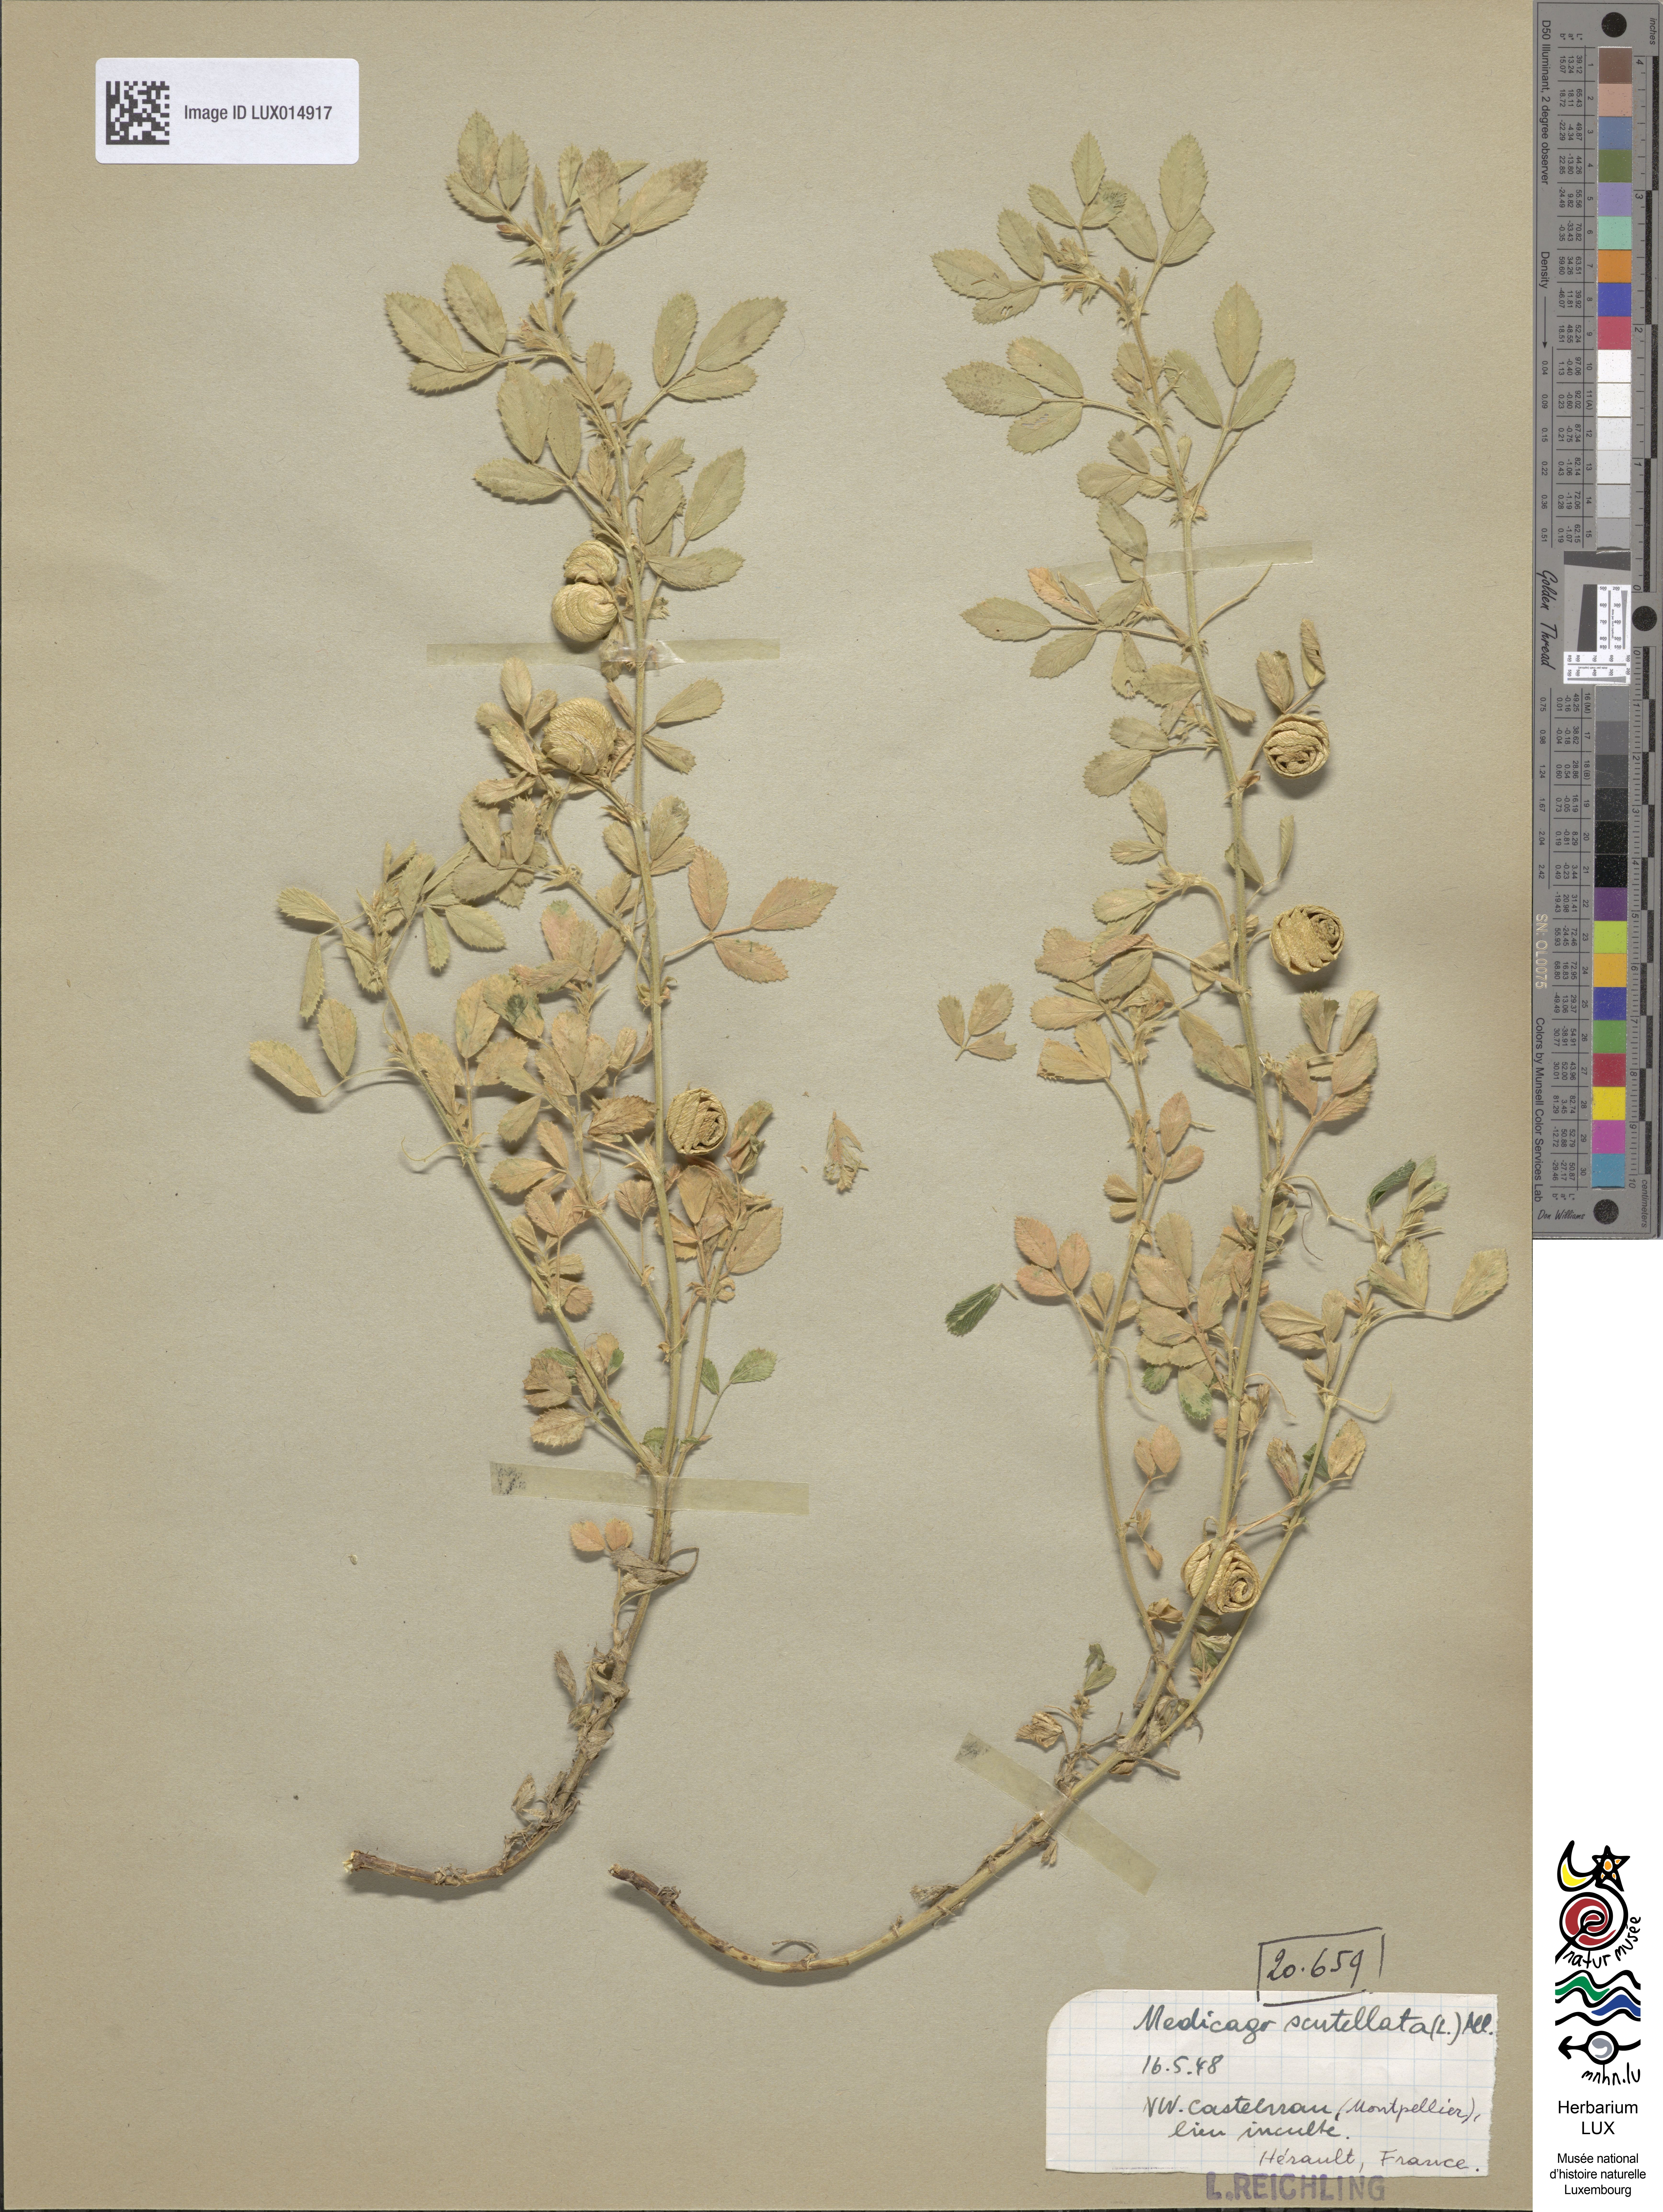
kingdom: Plantae
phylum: Tracheophyta
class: Magnoliopsida
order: Fabales
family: Fabaceae
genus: Medicago
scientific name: Medicago scutellata
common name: Snail medick
